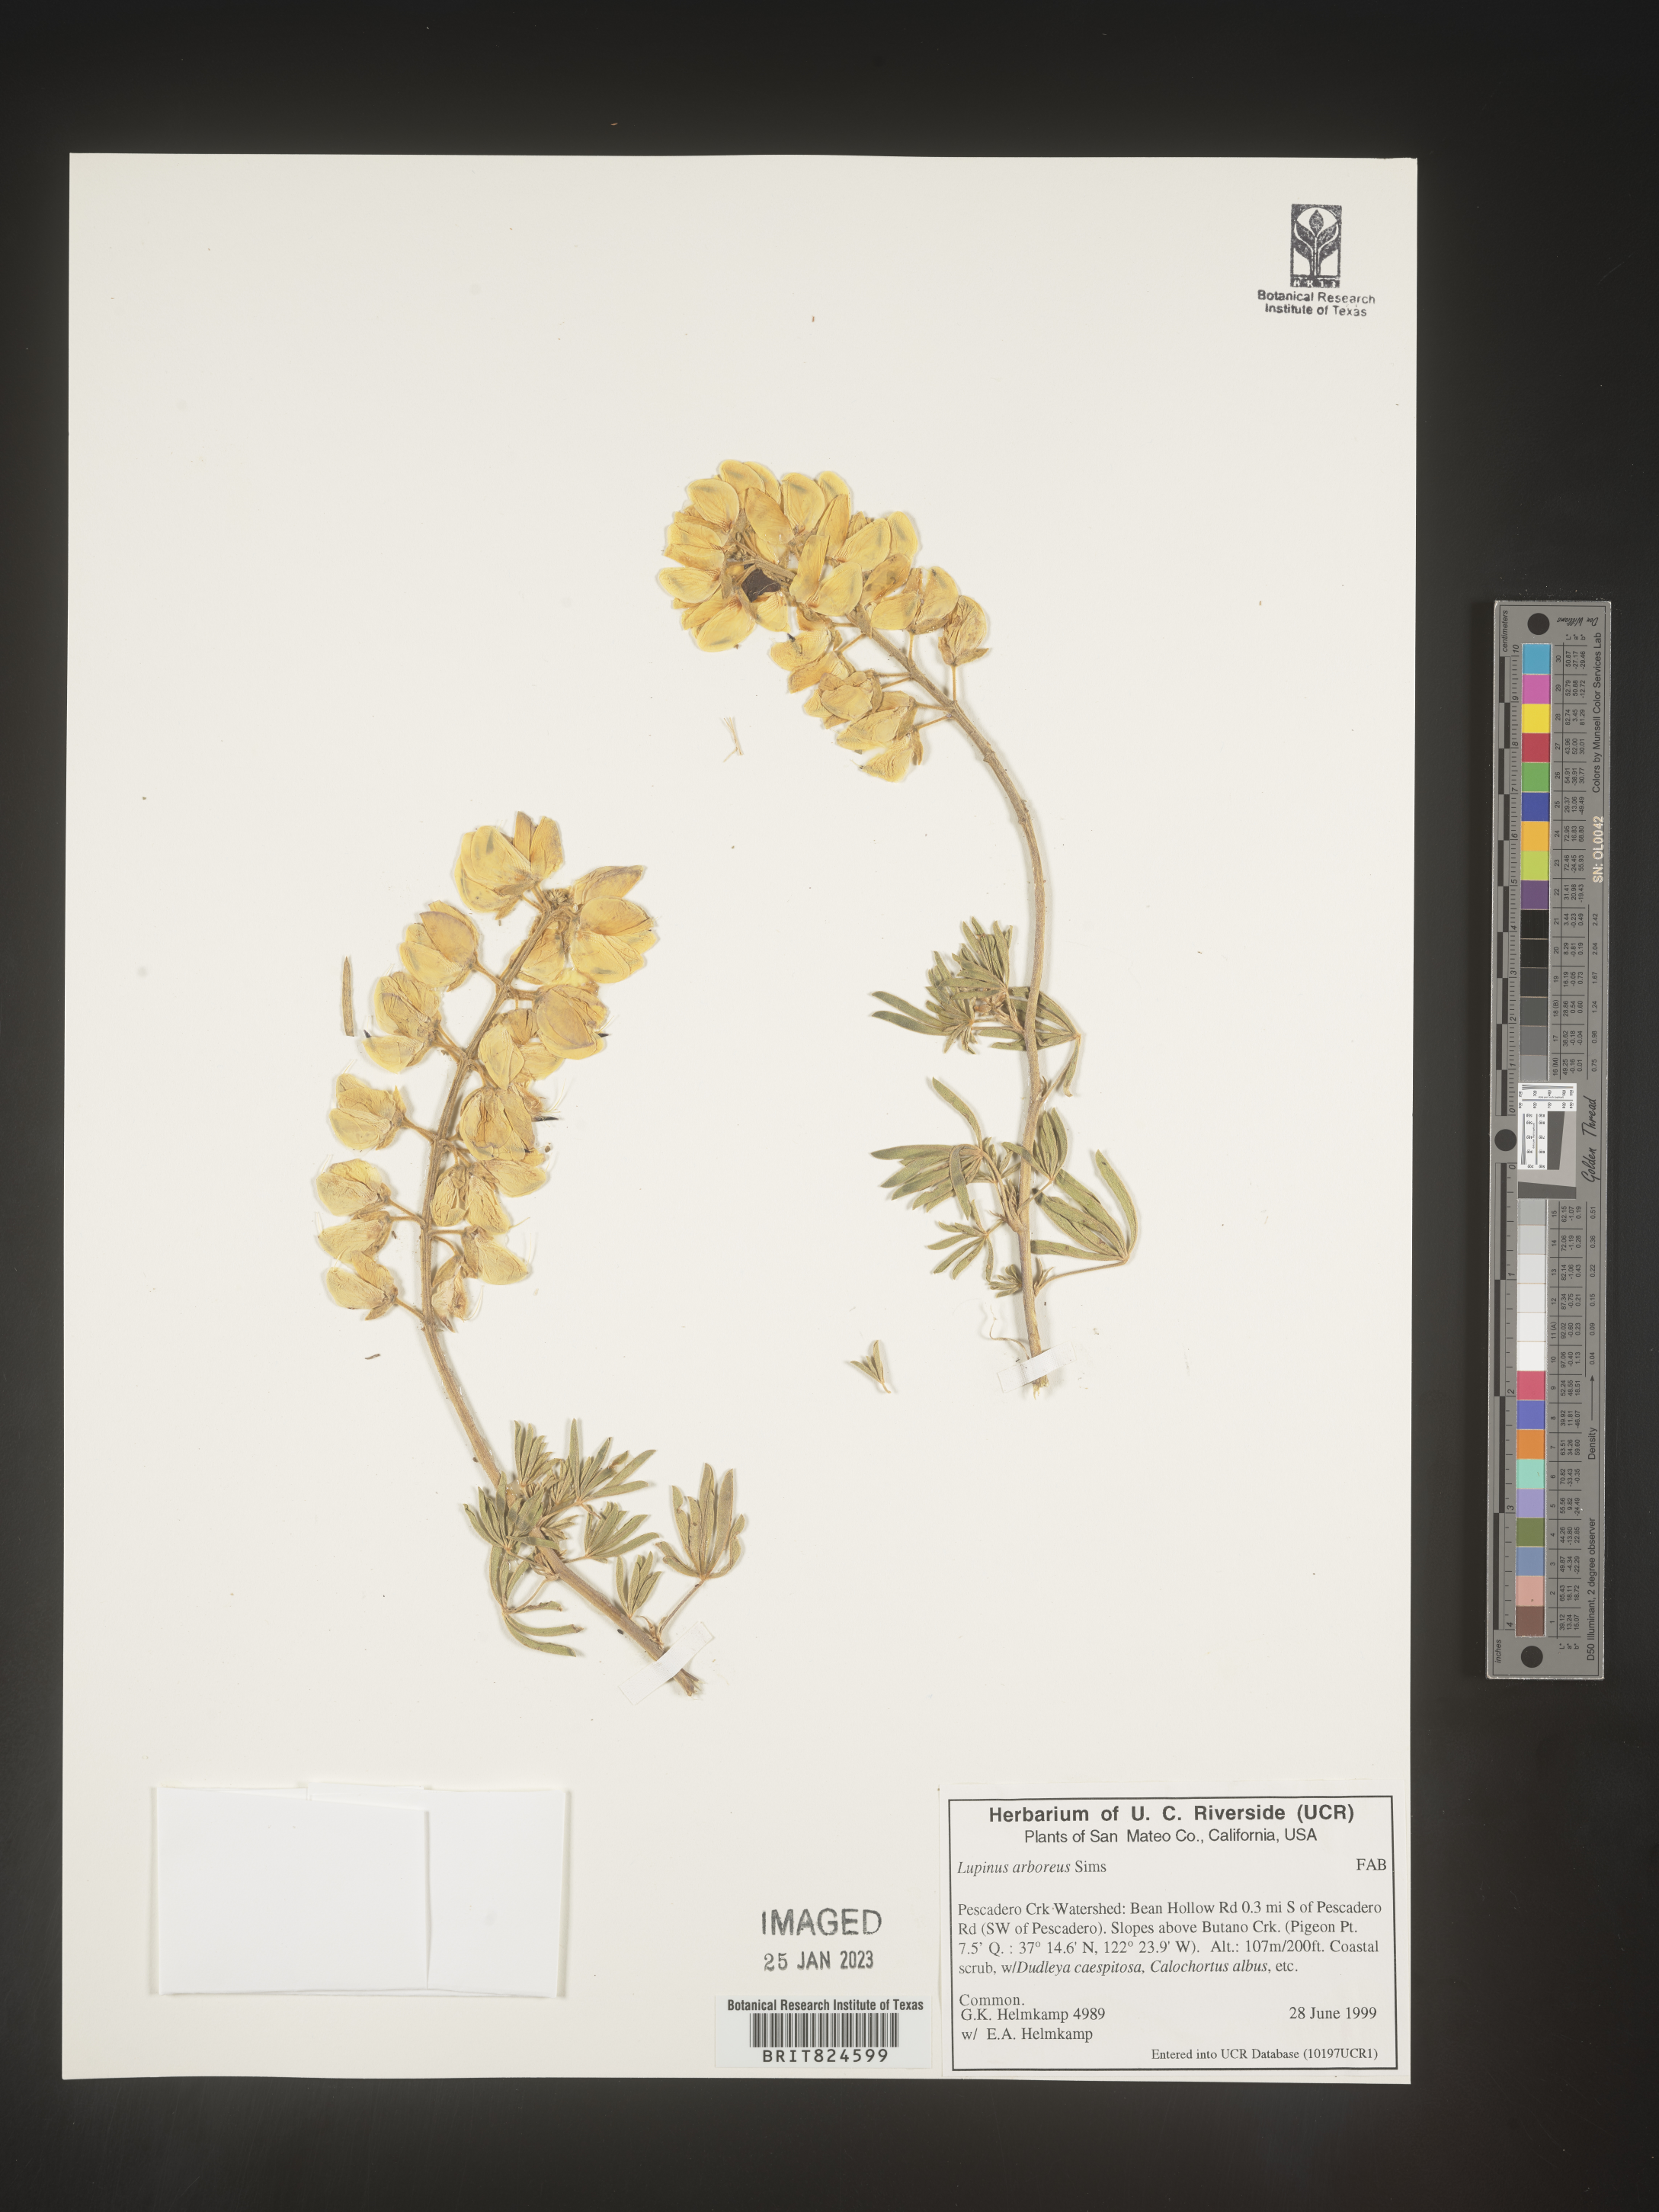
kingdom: Plantae
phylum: Tracheophyta
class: Magnoliopsida
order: Fabales
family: Fabaceae
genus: Lupinus
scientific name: Lupinus
